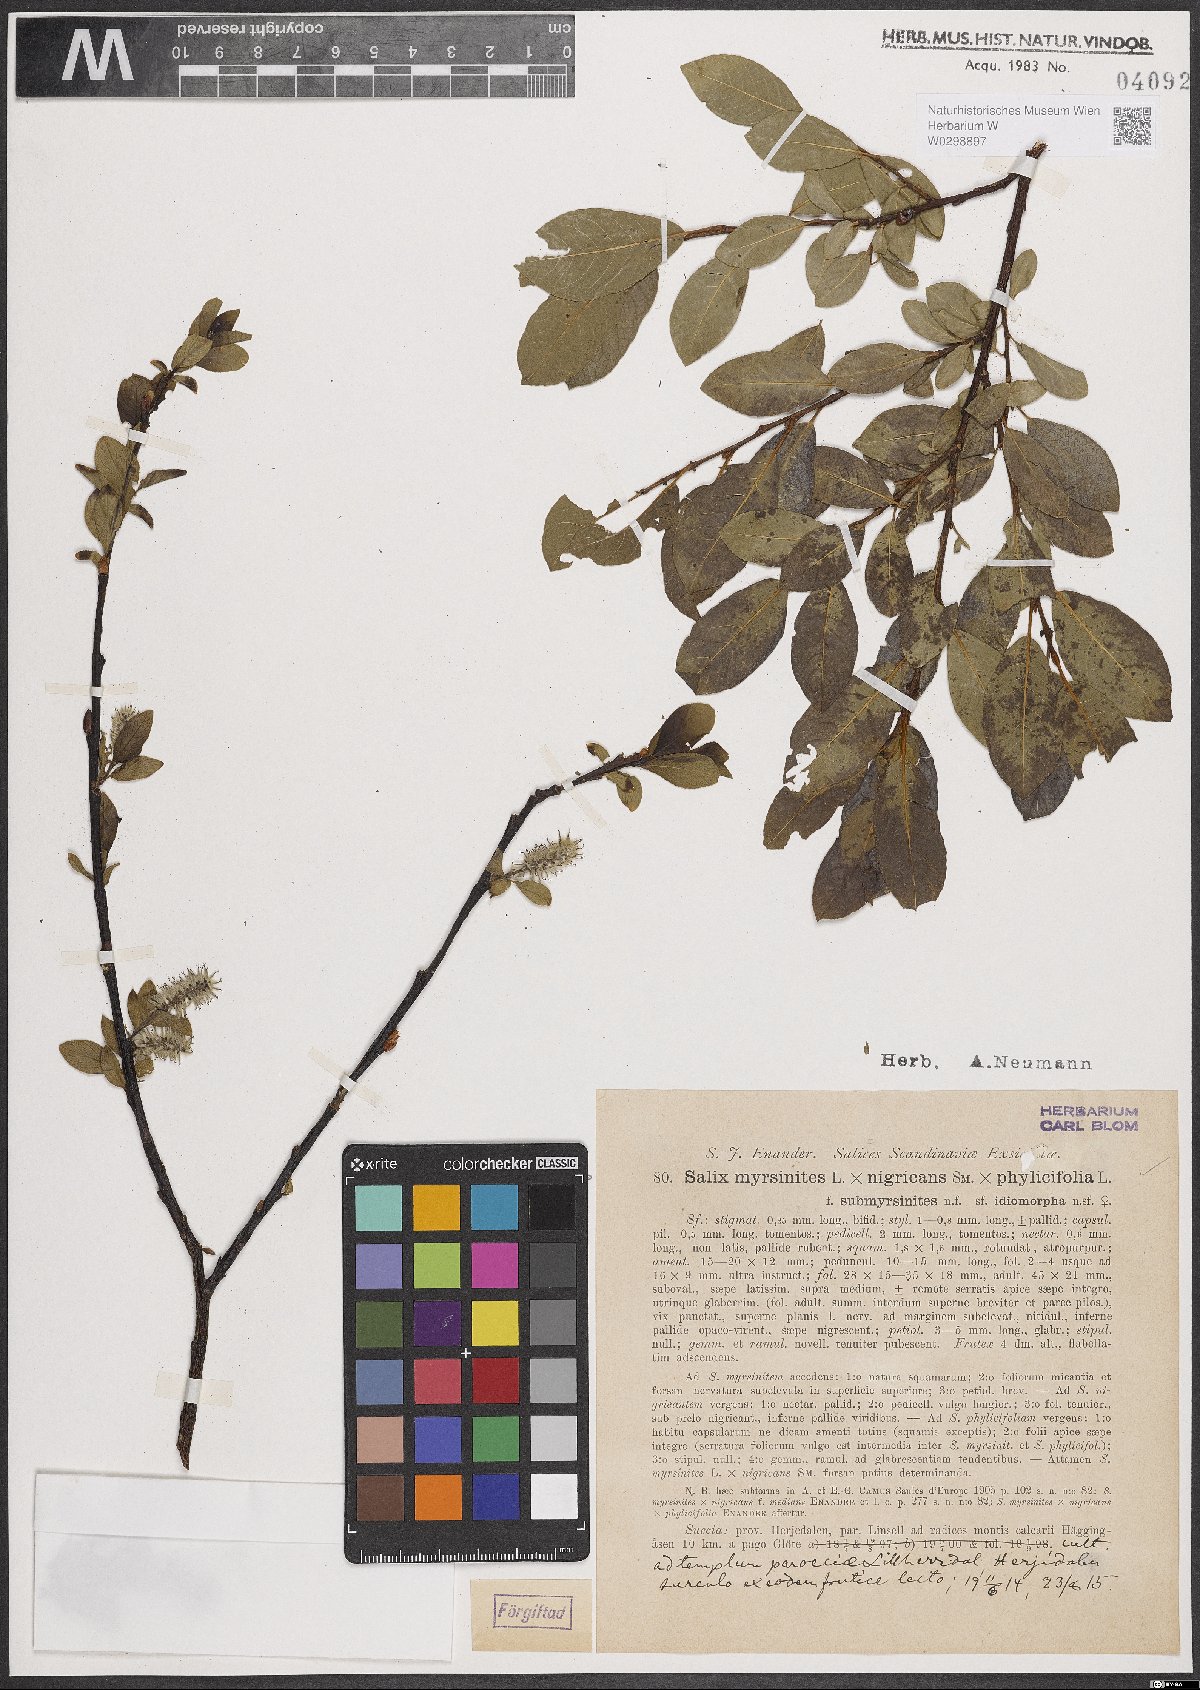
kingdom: Plantae
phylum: Tracheophyta
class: Magnoliopsida
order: Malpighiales
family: Salicaceae
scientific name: Salicaceae
